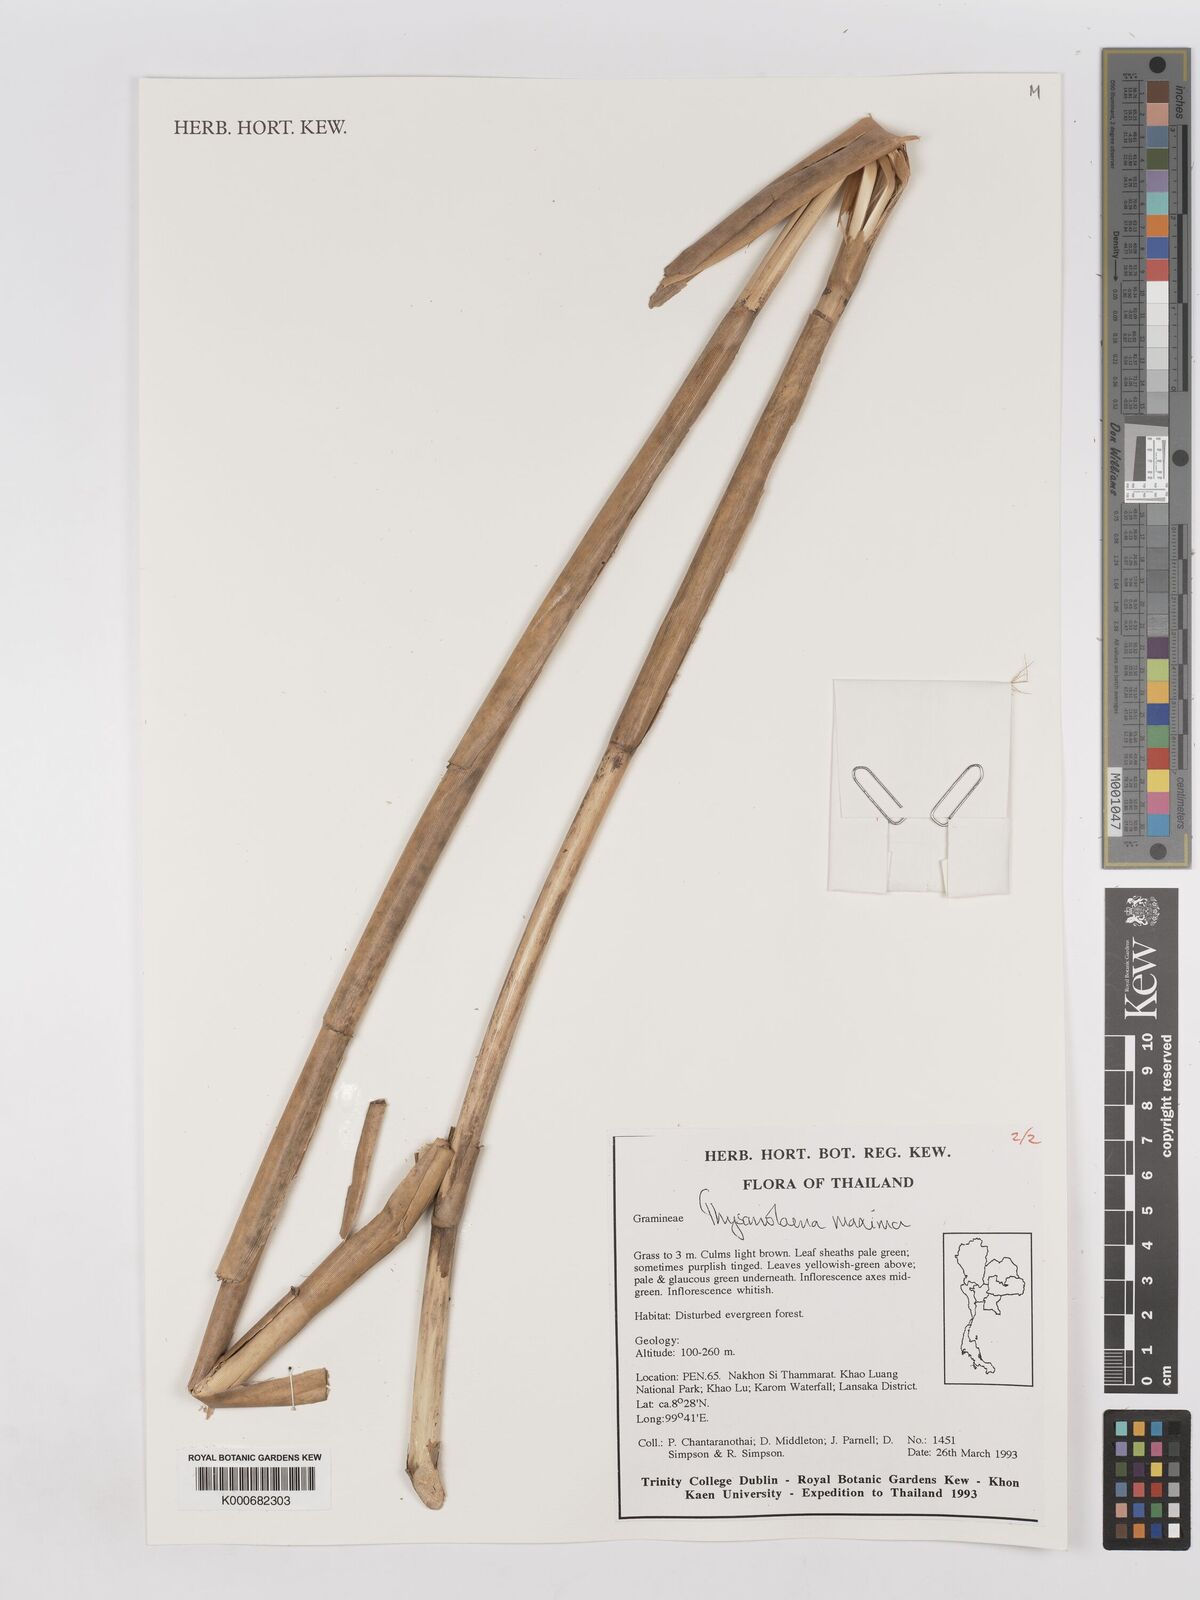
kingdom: Plantae
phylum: Tracheophyta
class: Liliopsida
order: Poales
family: Poaceae
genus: Thysanolaena
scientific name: Thysanolaena latifolia
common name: Tiger grass
